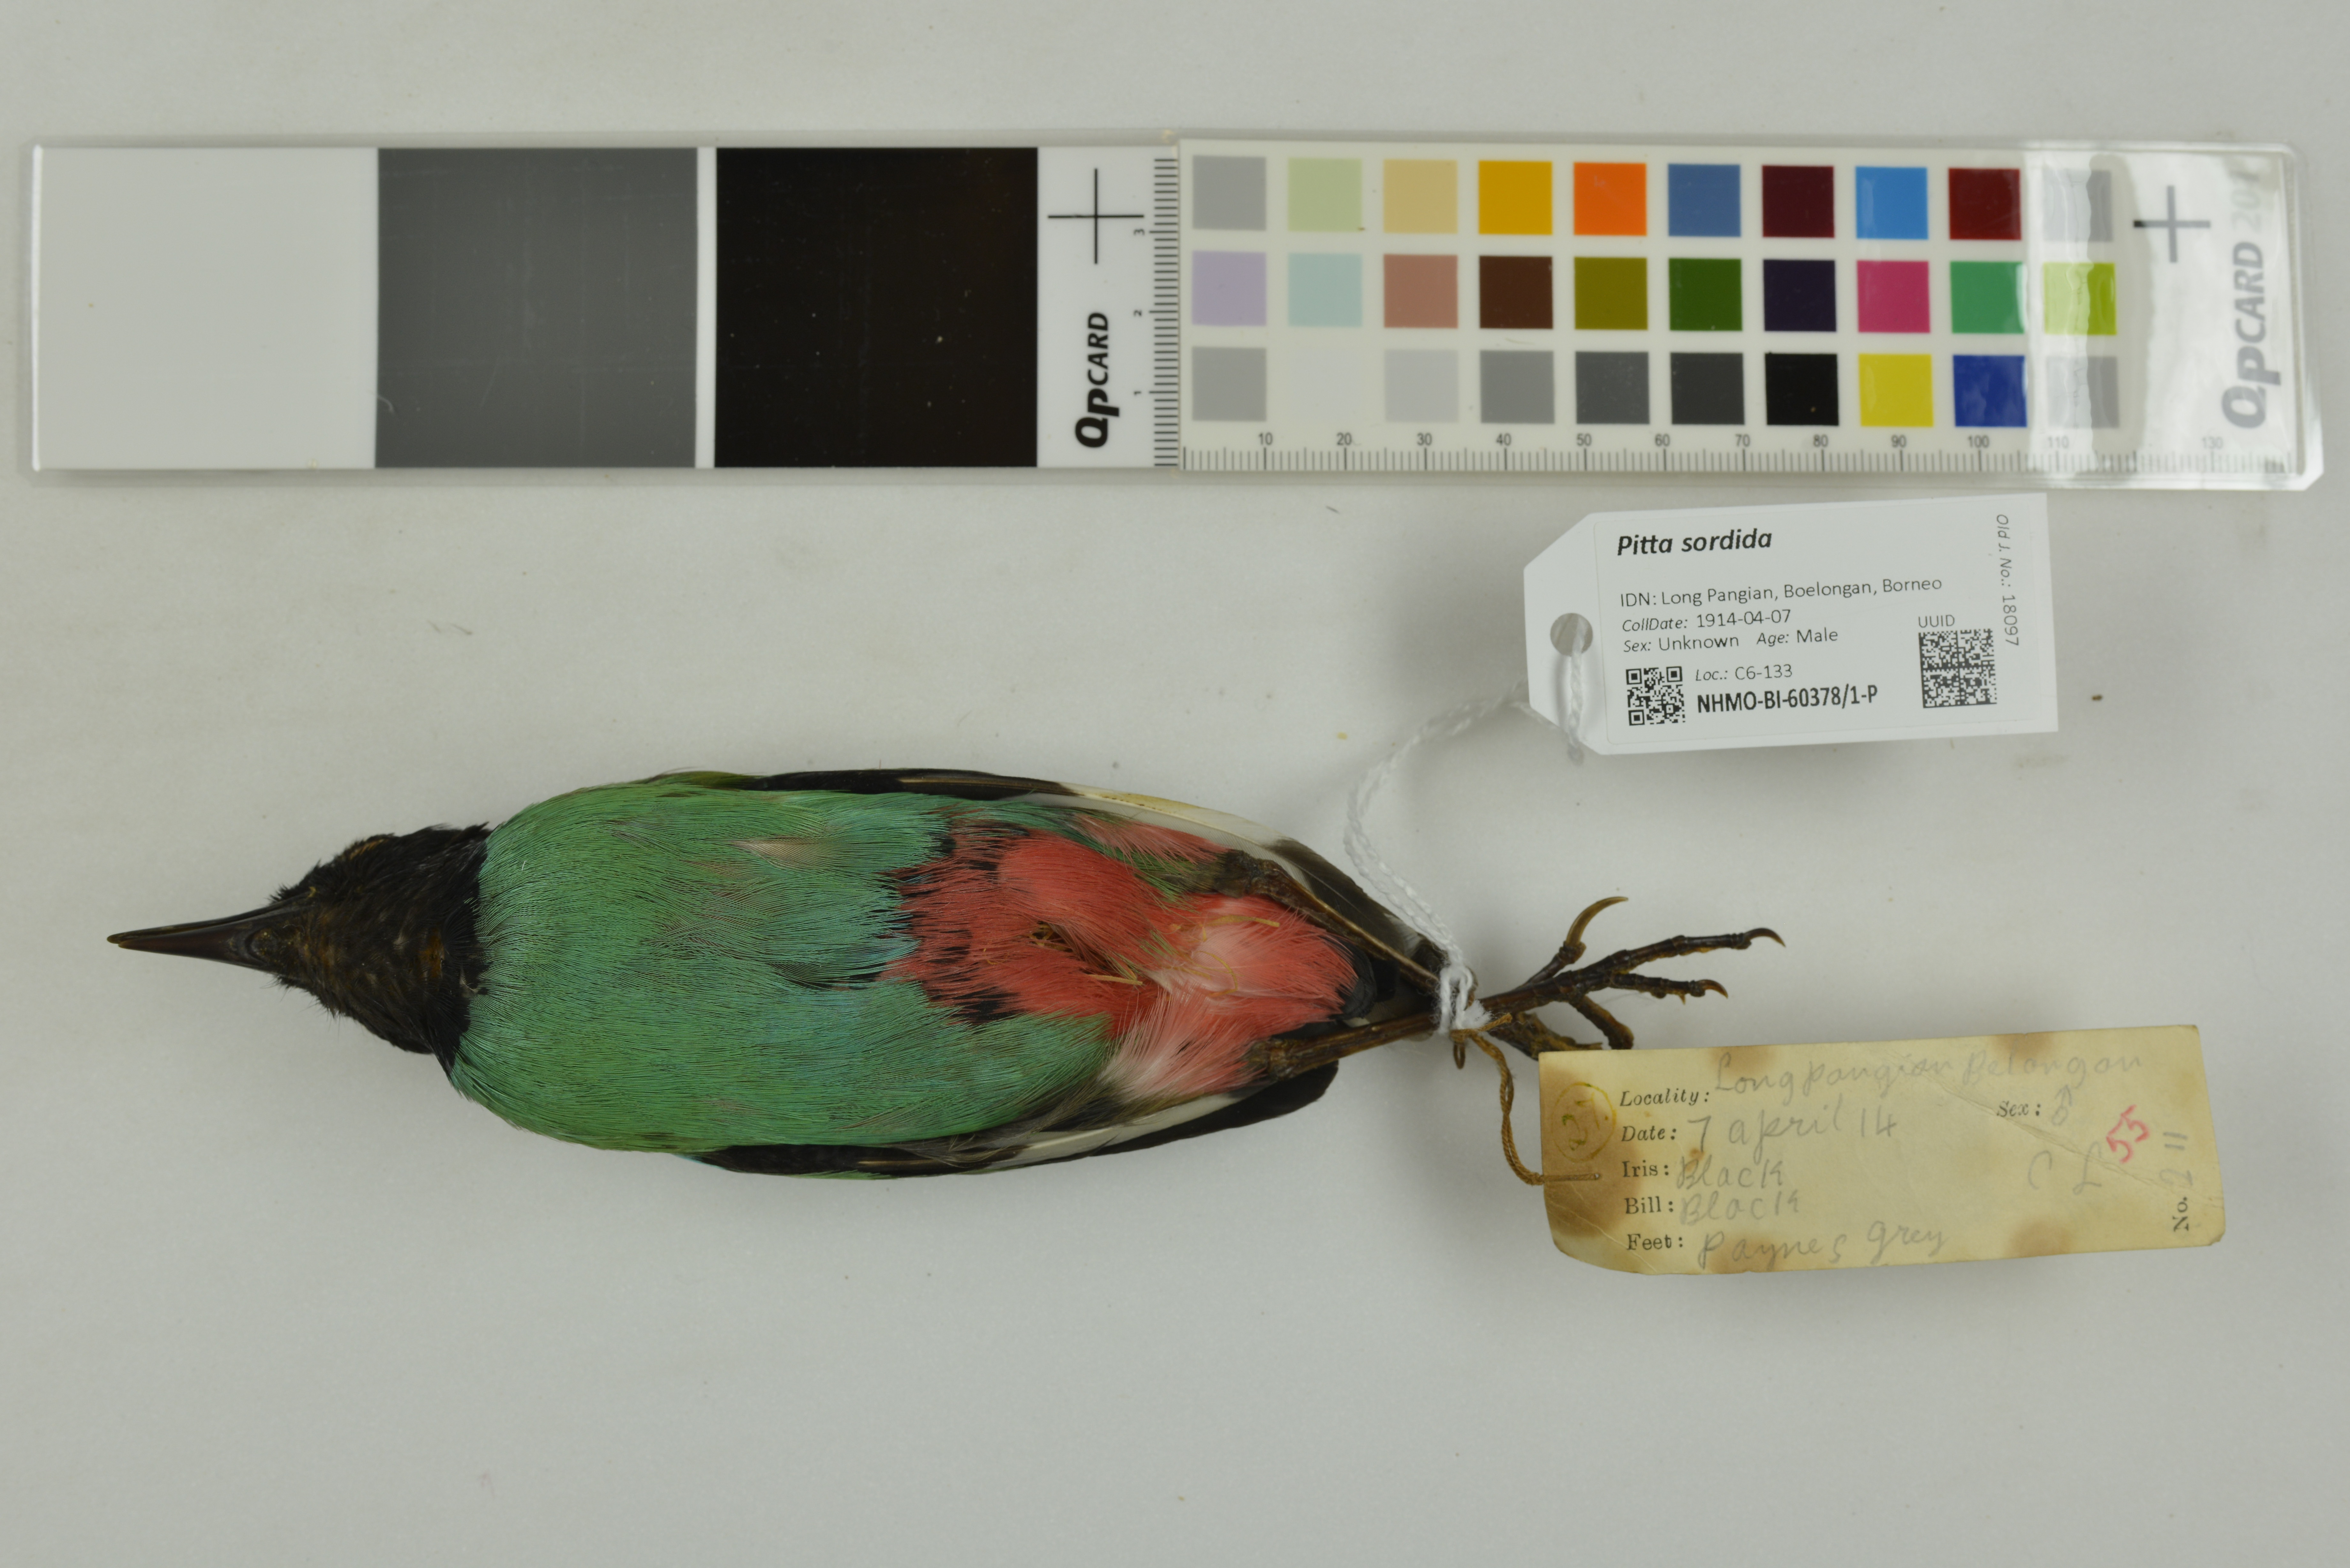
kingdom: Animalia
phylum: Chordata
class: Aves
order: Passeriformes
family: Pittidae
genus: Pitta
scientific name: Pitta sordida
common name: Hooded pitta
